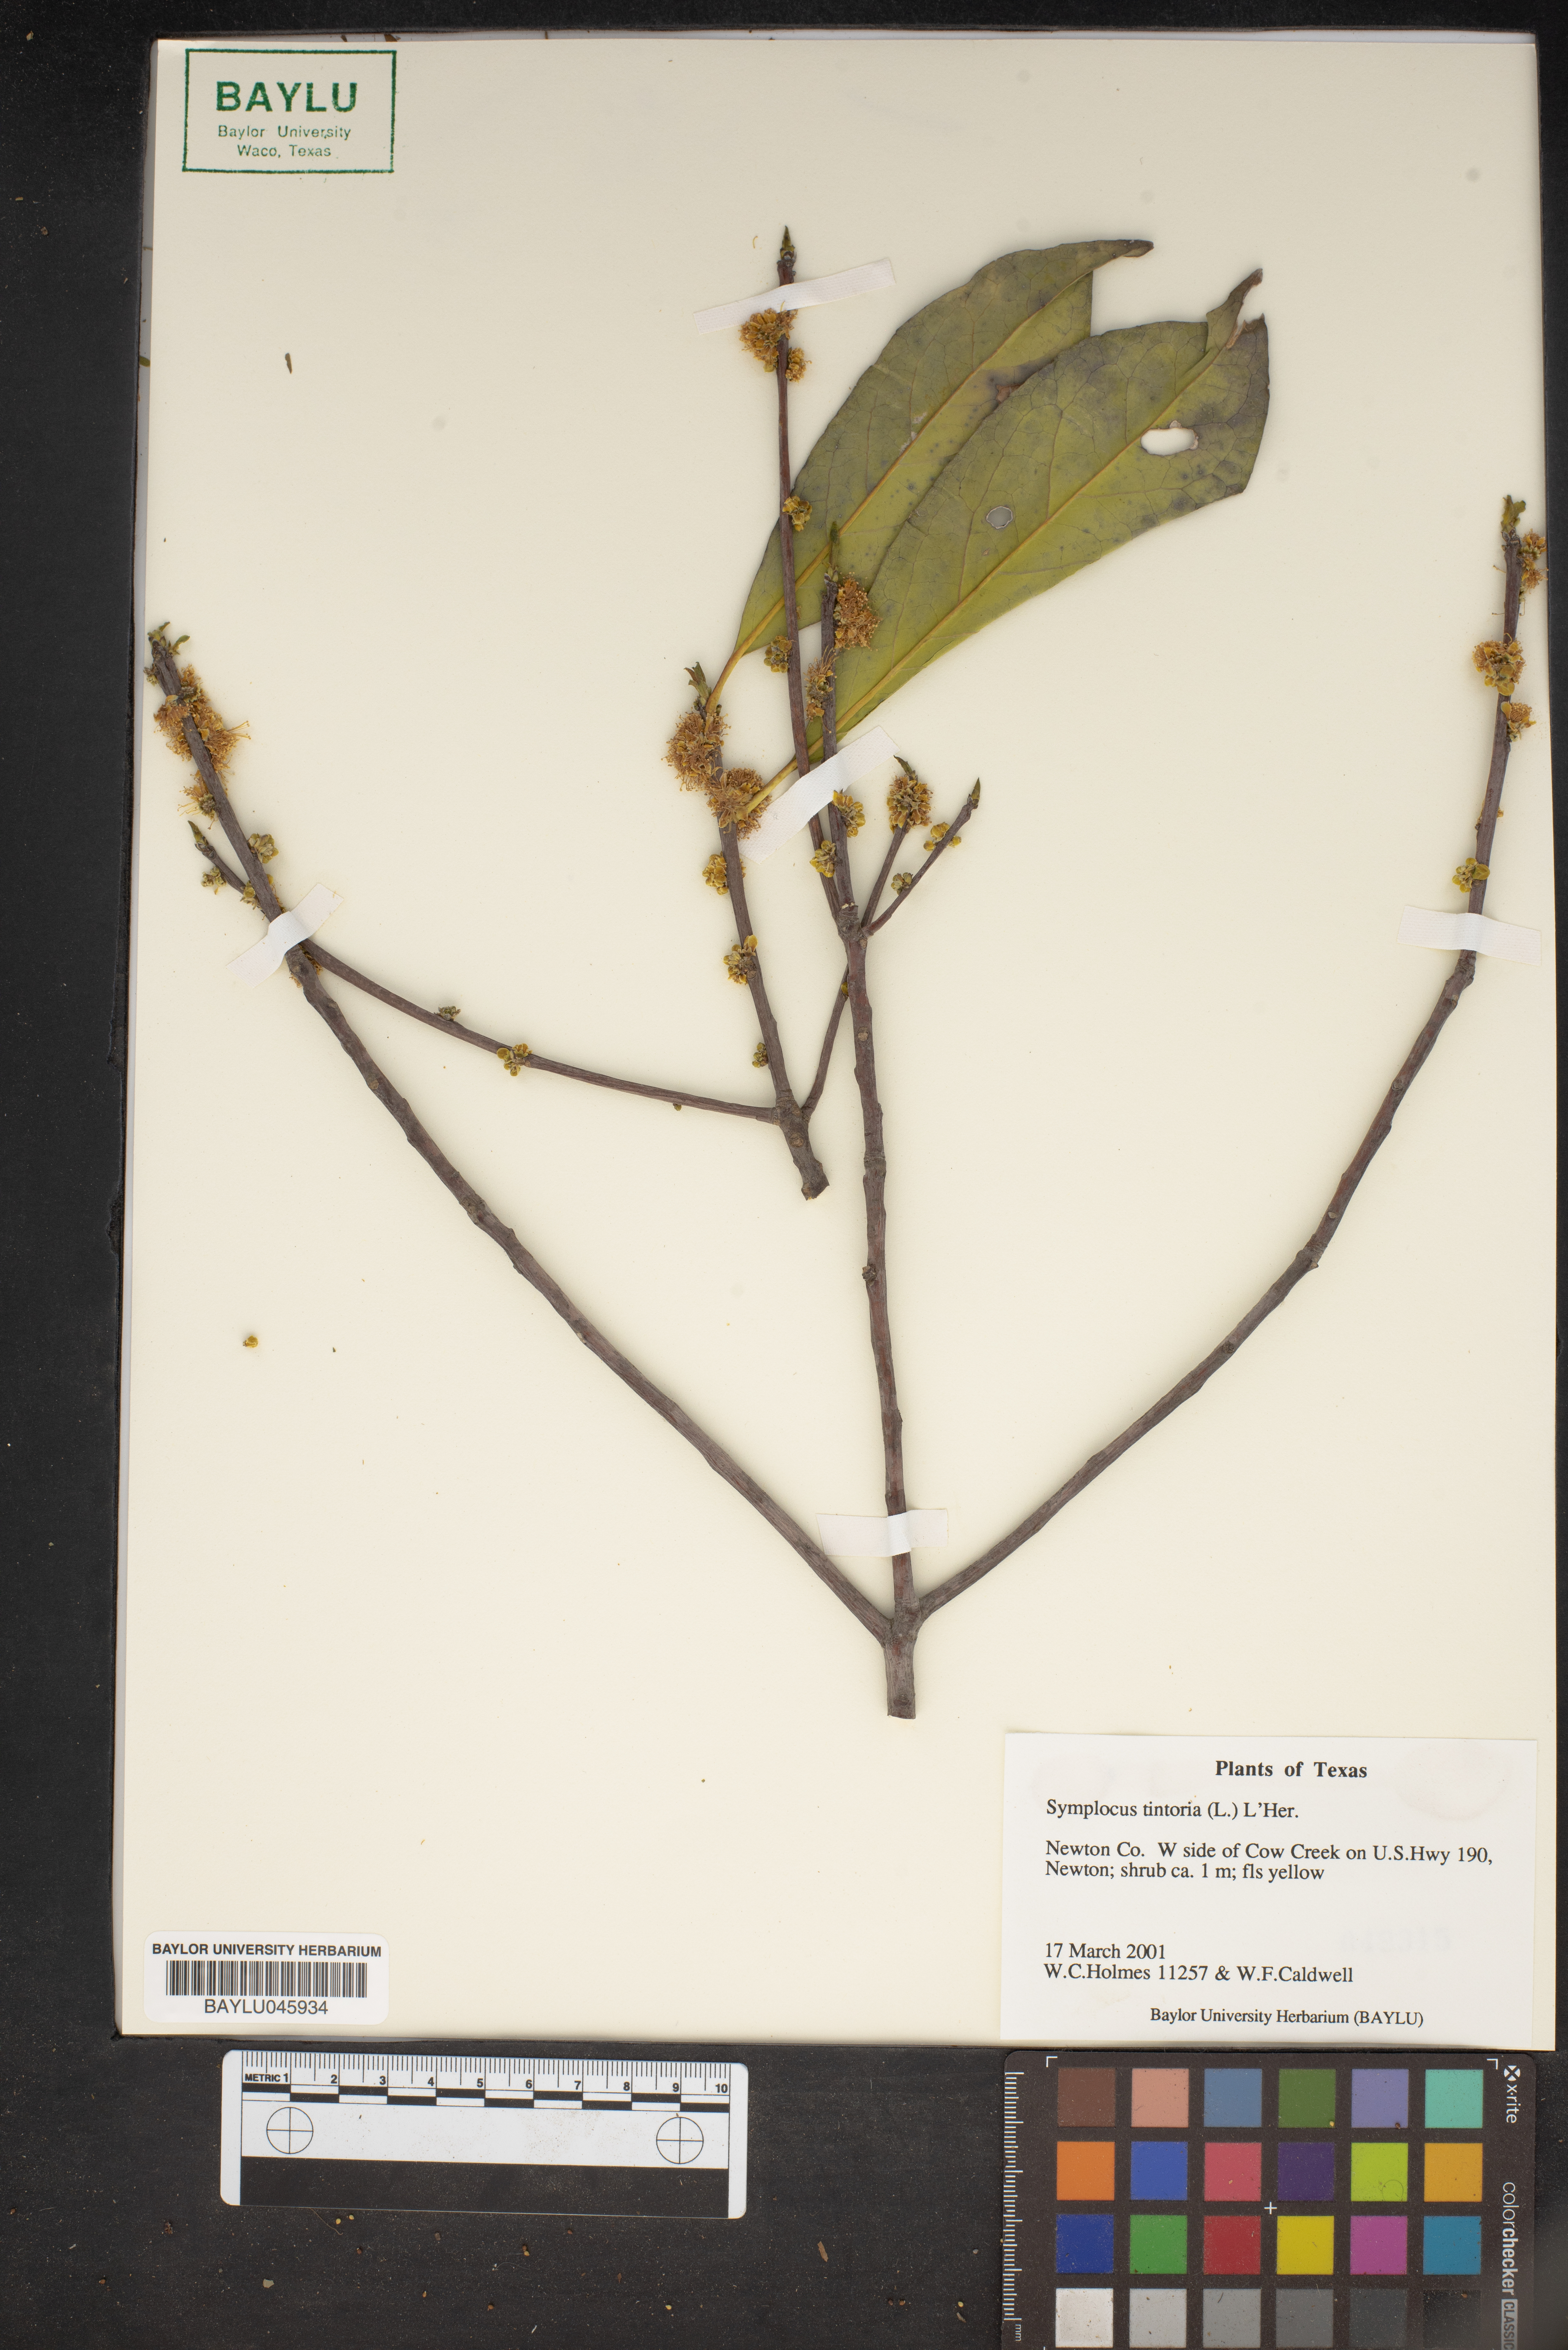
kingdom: Plantae
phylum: Tracheophyta
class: Magnoliopsida
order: Ericales
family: Symplocaceae
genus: Symplocos
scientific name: Symplocos tinctoria
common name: Horse-sugar
